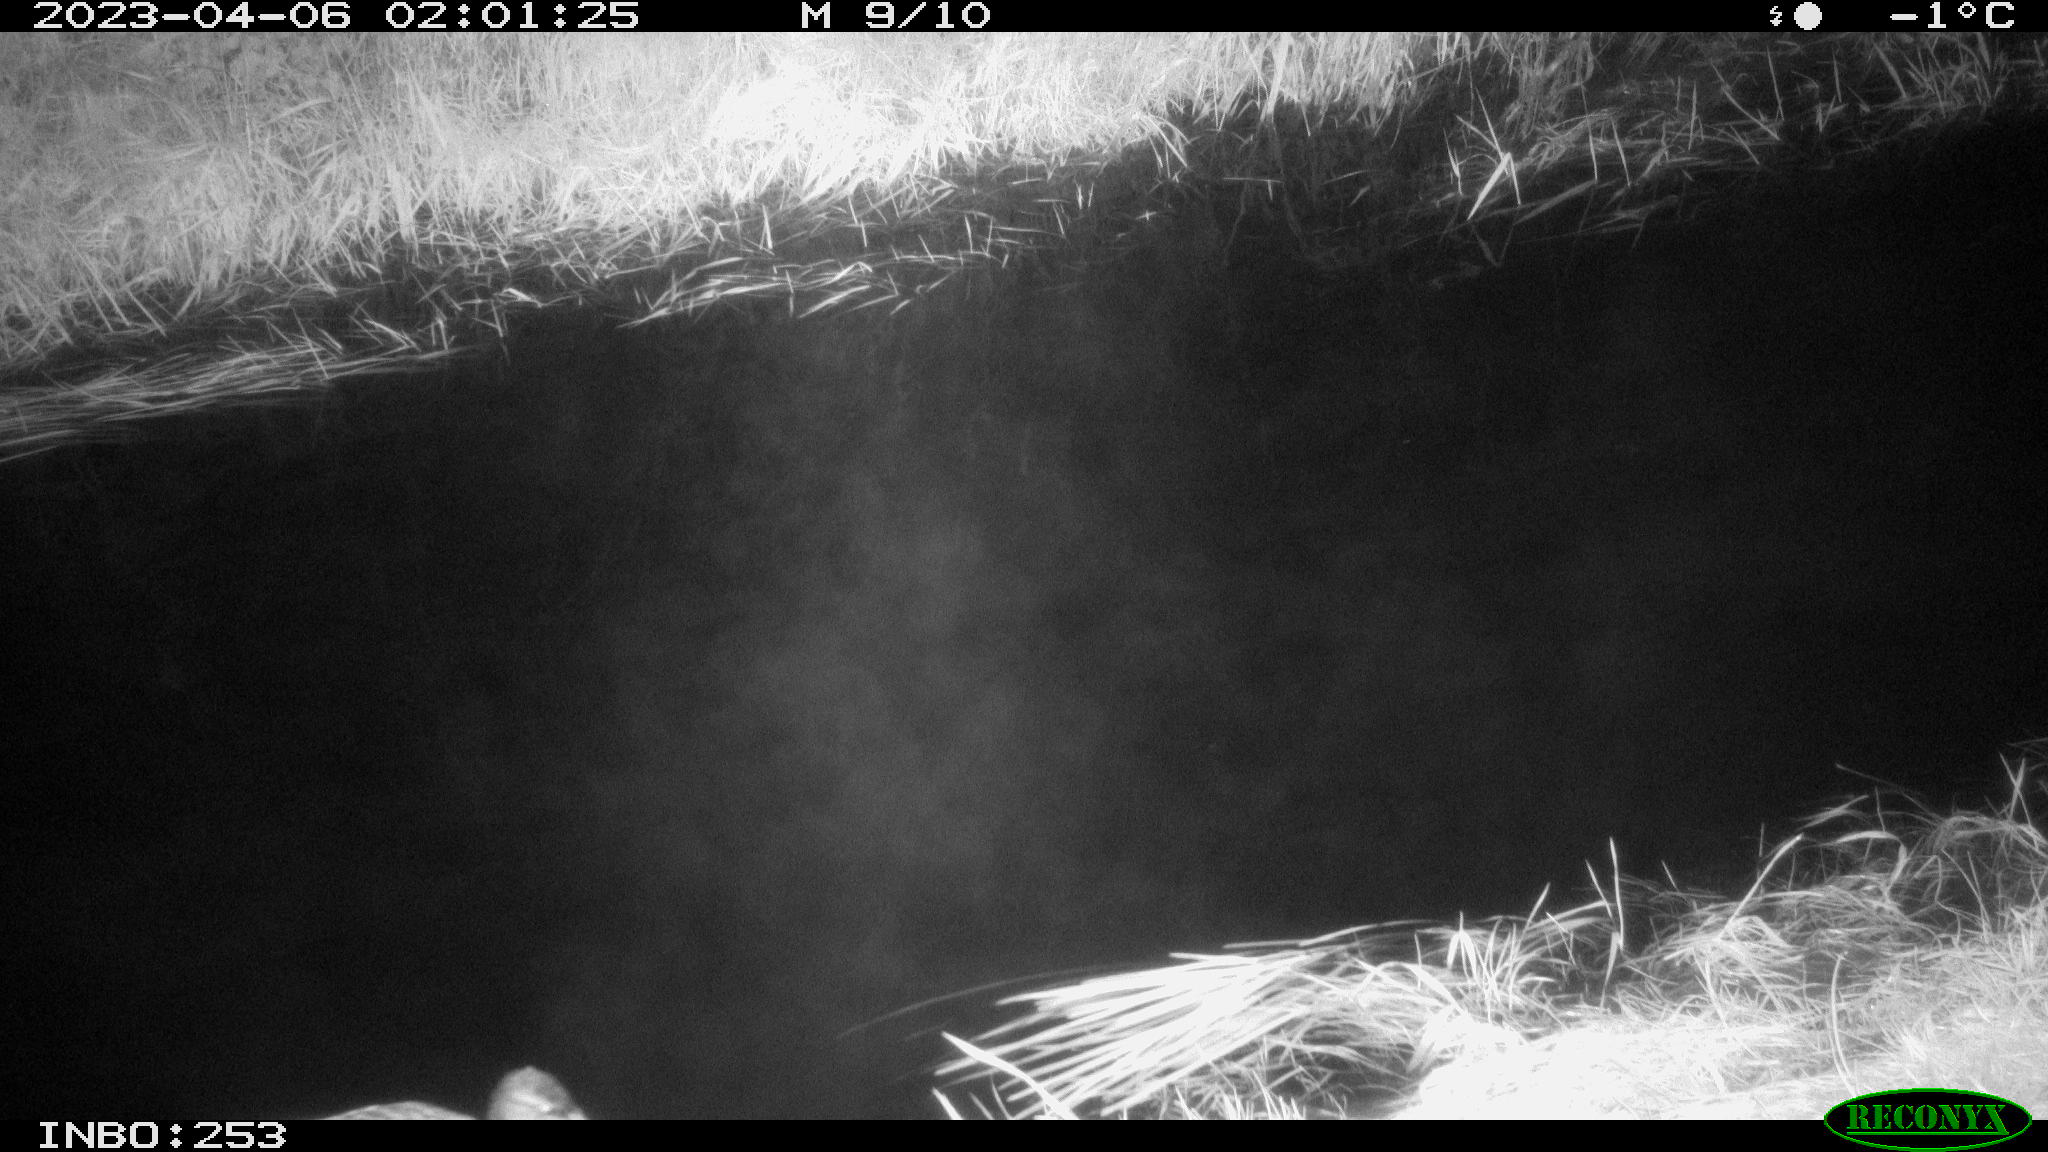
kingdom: Animalia
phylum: Chordata
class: Aves
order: Anseriformes
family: Anatidae
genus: Anas
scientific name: Anas
